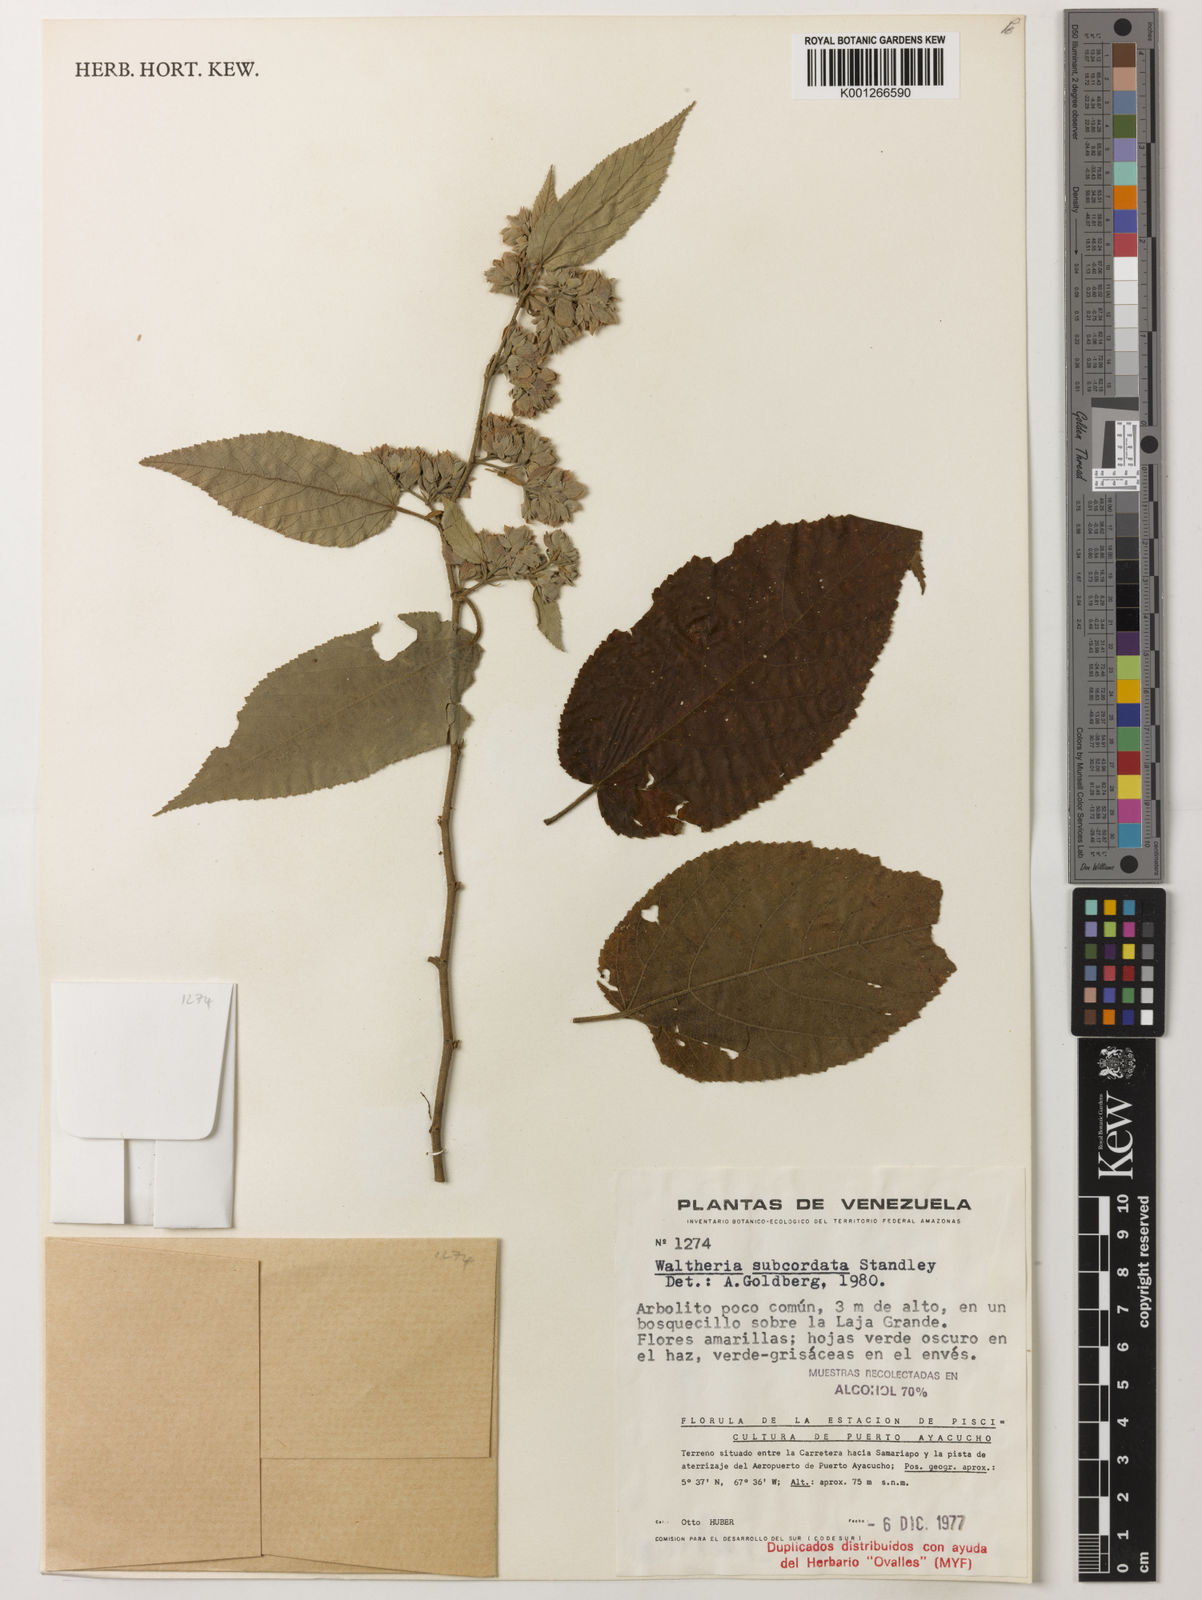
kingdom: Plantae
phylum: Tracheophyta
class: Magnoliopsida
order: Malvales
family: Malvaceae
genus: Waltheria
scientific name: Waltheria berteroi
